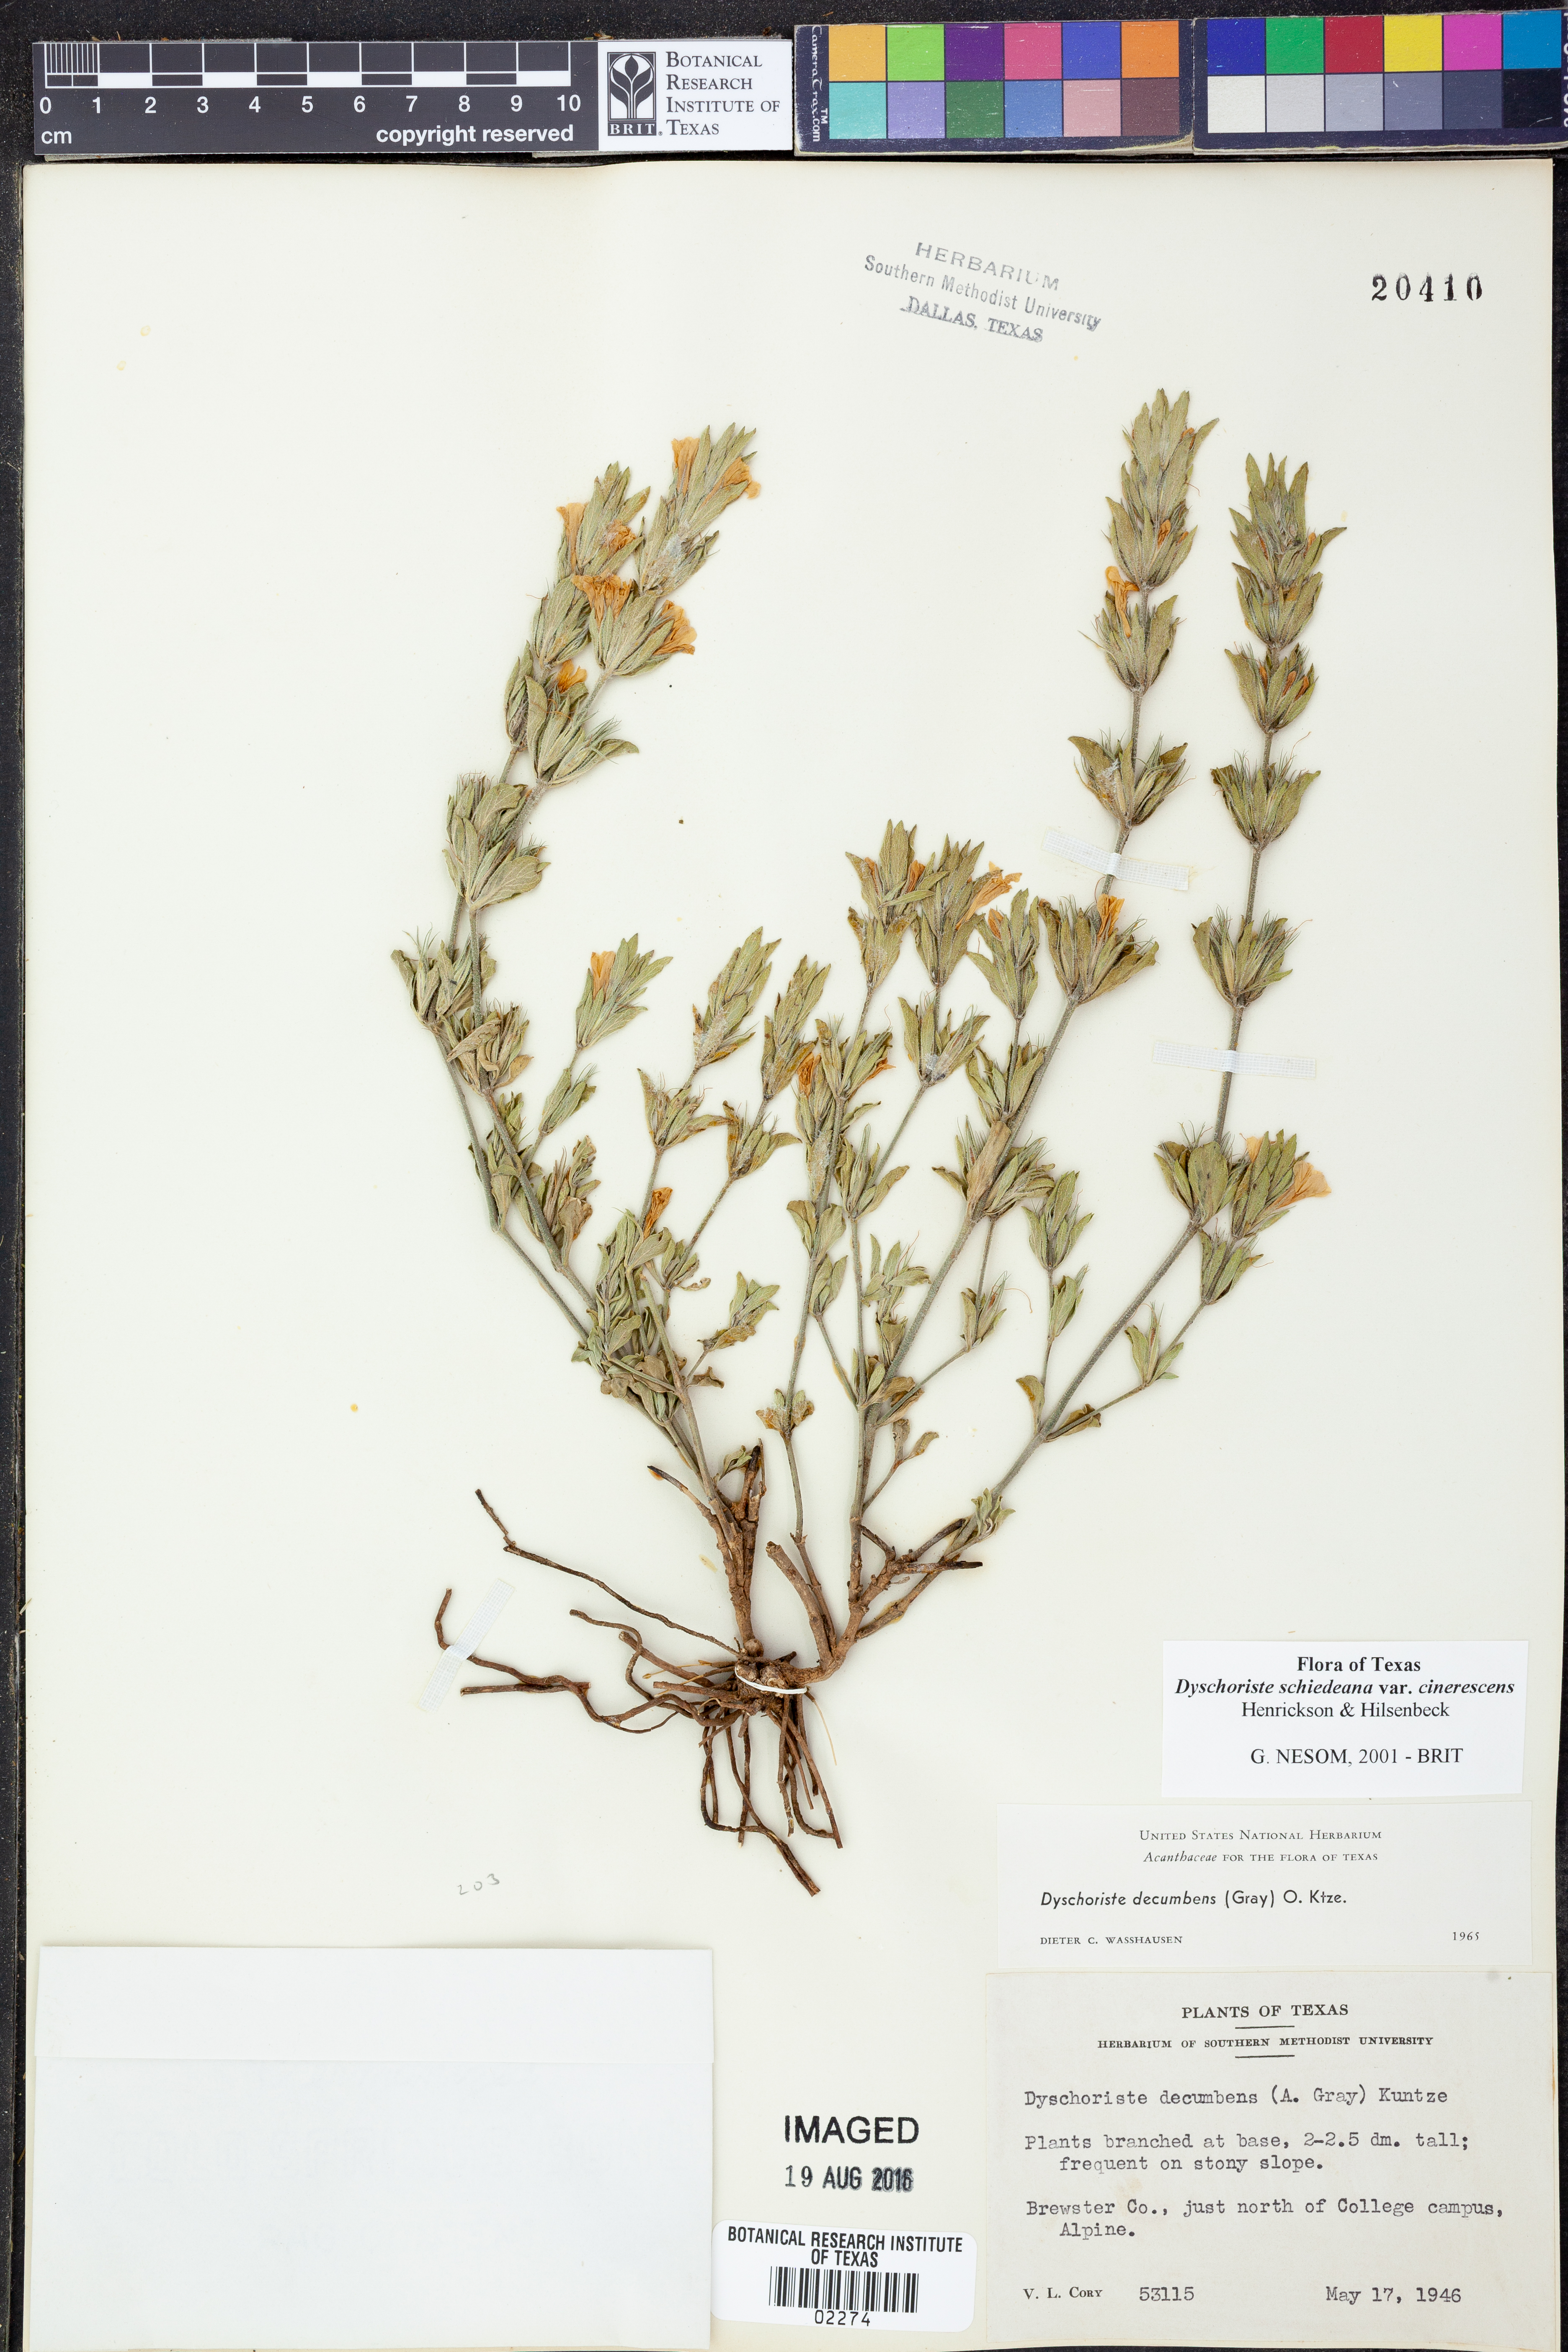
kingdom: Plantae
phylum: Tracheophyta
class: Magnoliopsida
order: Lamiales
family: Acanthaceae
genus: Dyschoriste
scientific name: Dyschoriste cinerascens
